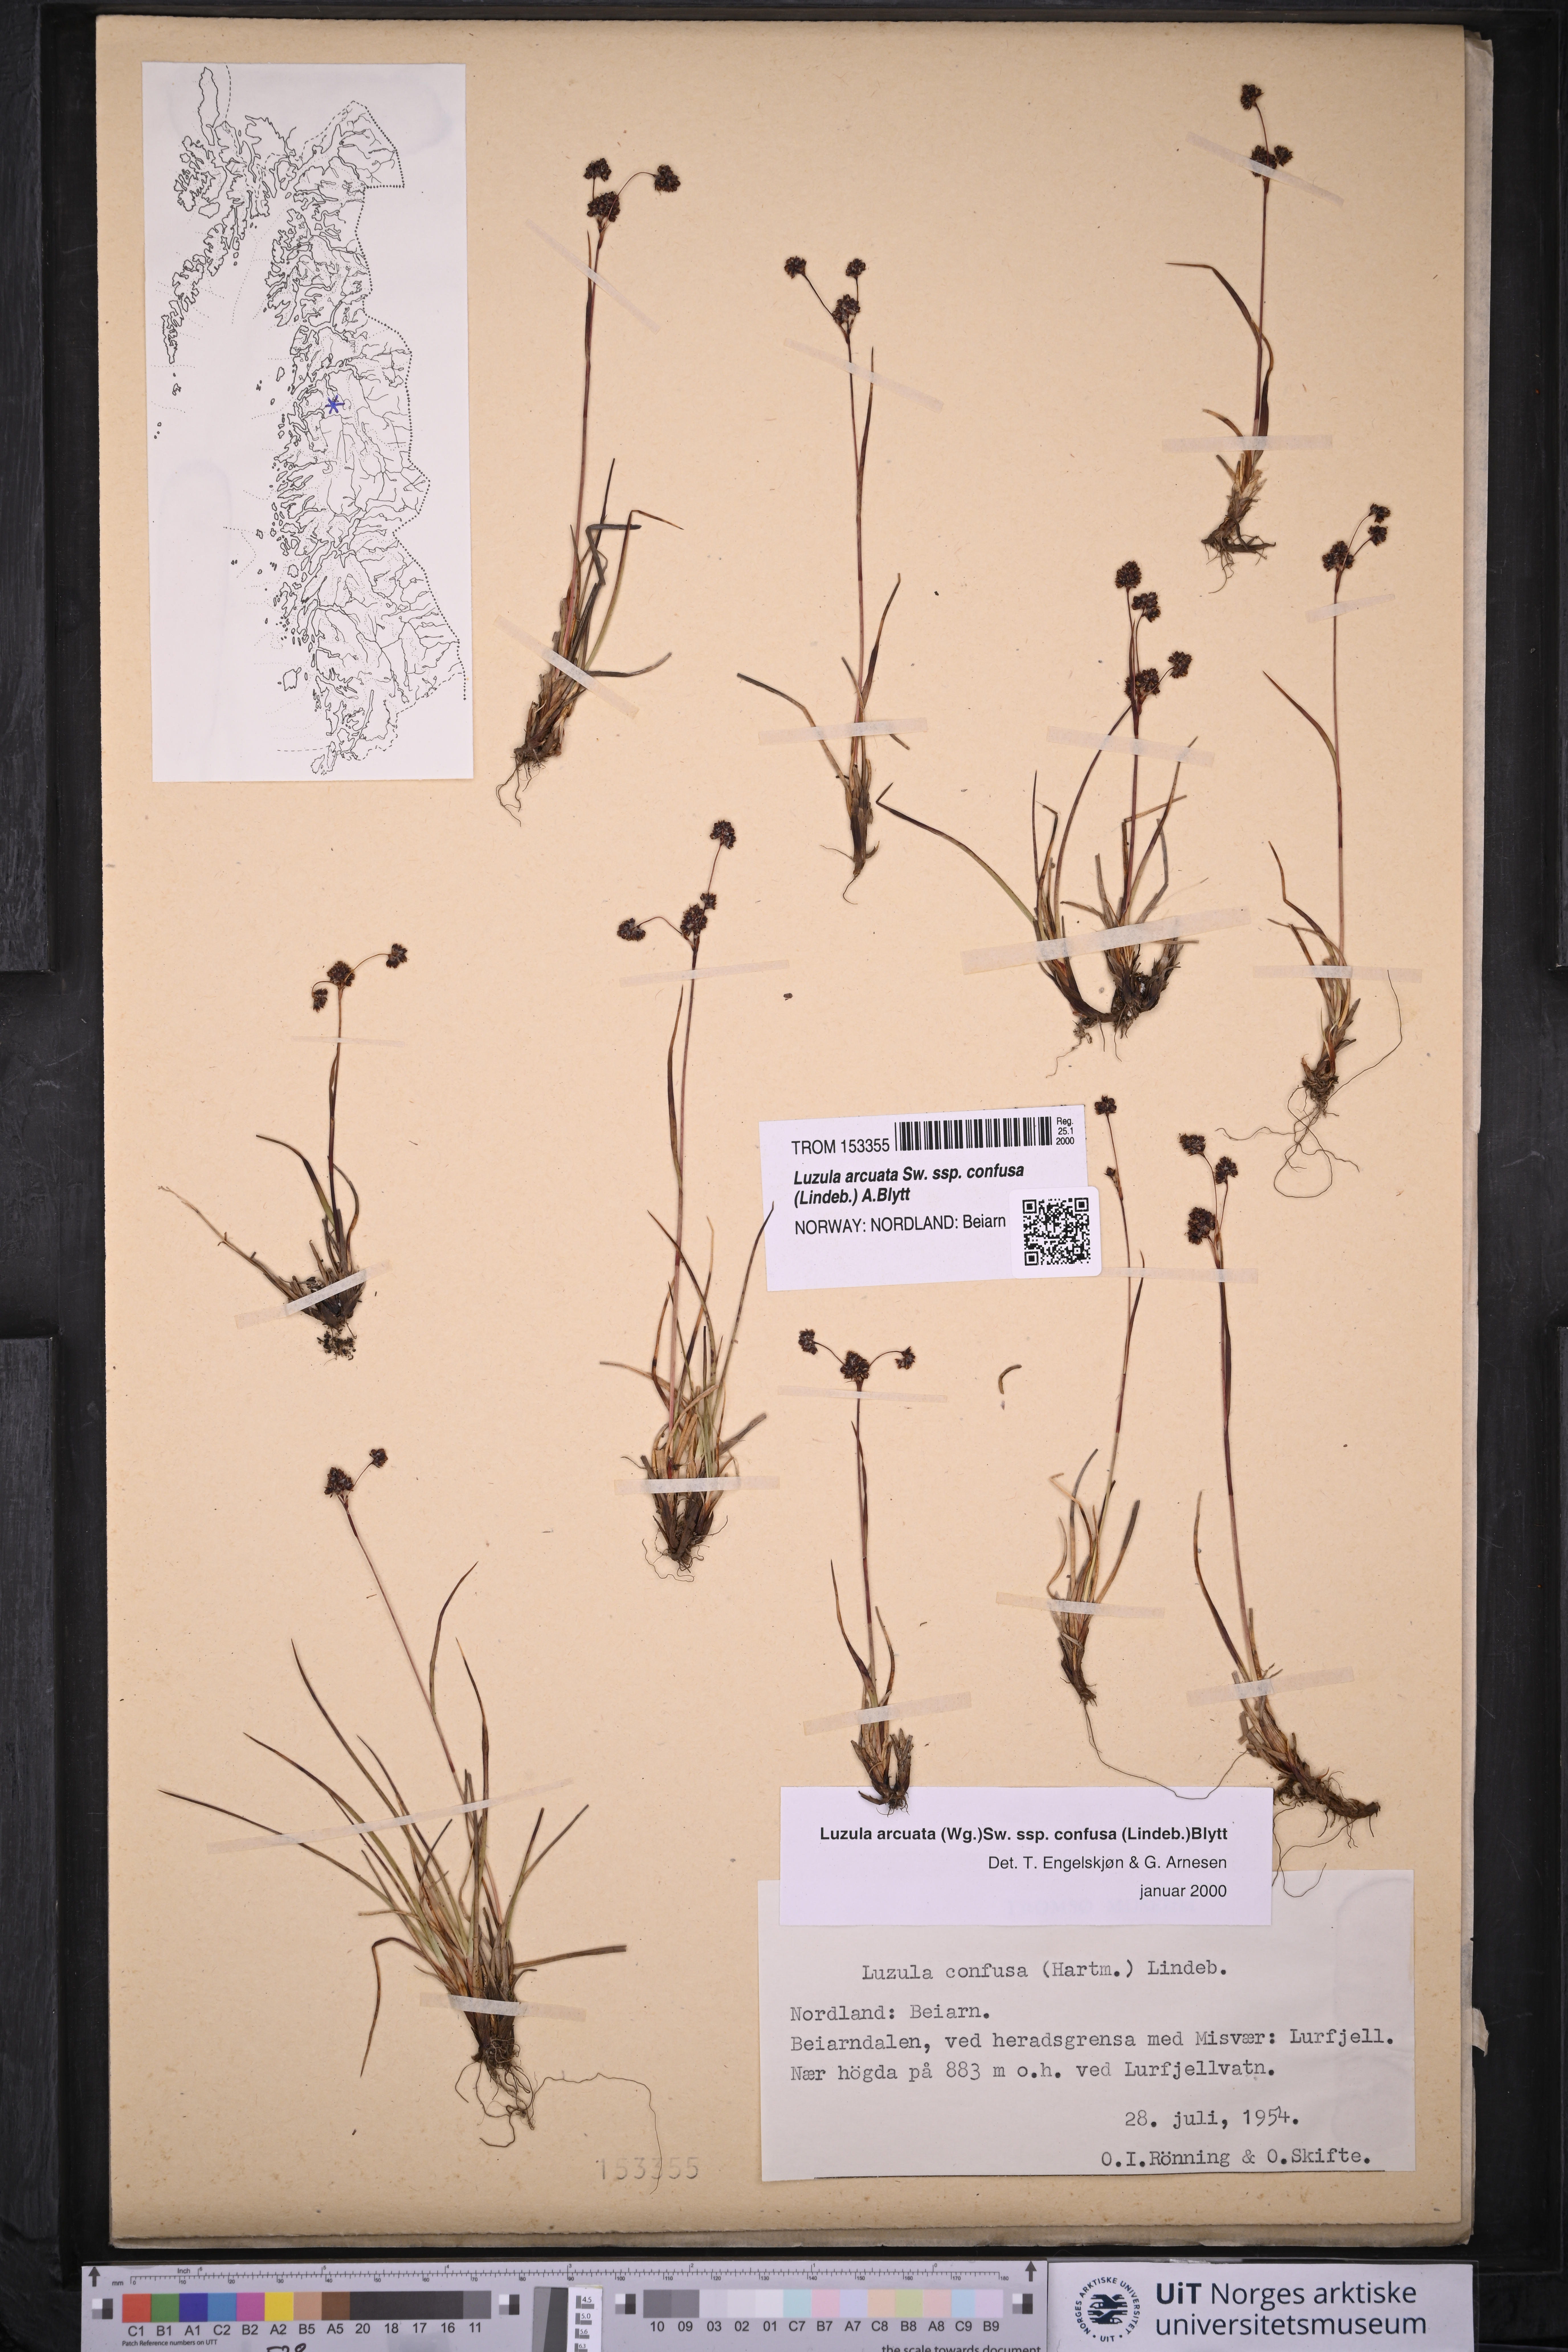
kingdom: Plantae
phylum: Tracheophyta
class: Liliopsida
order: Poales
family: Juncaceae
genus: Luzula
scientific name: Luzula confusa
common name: Northern wood rush
